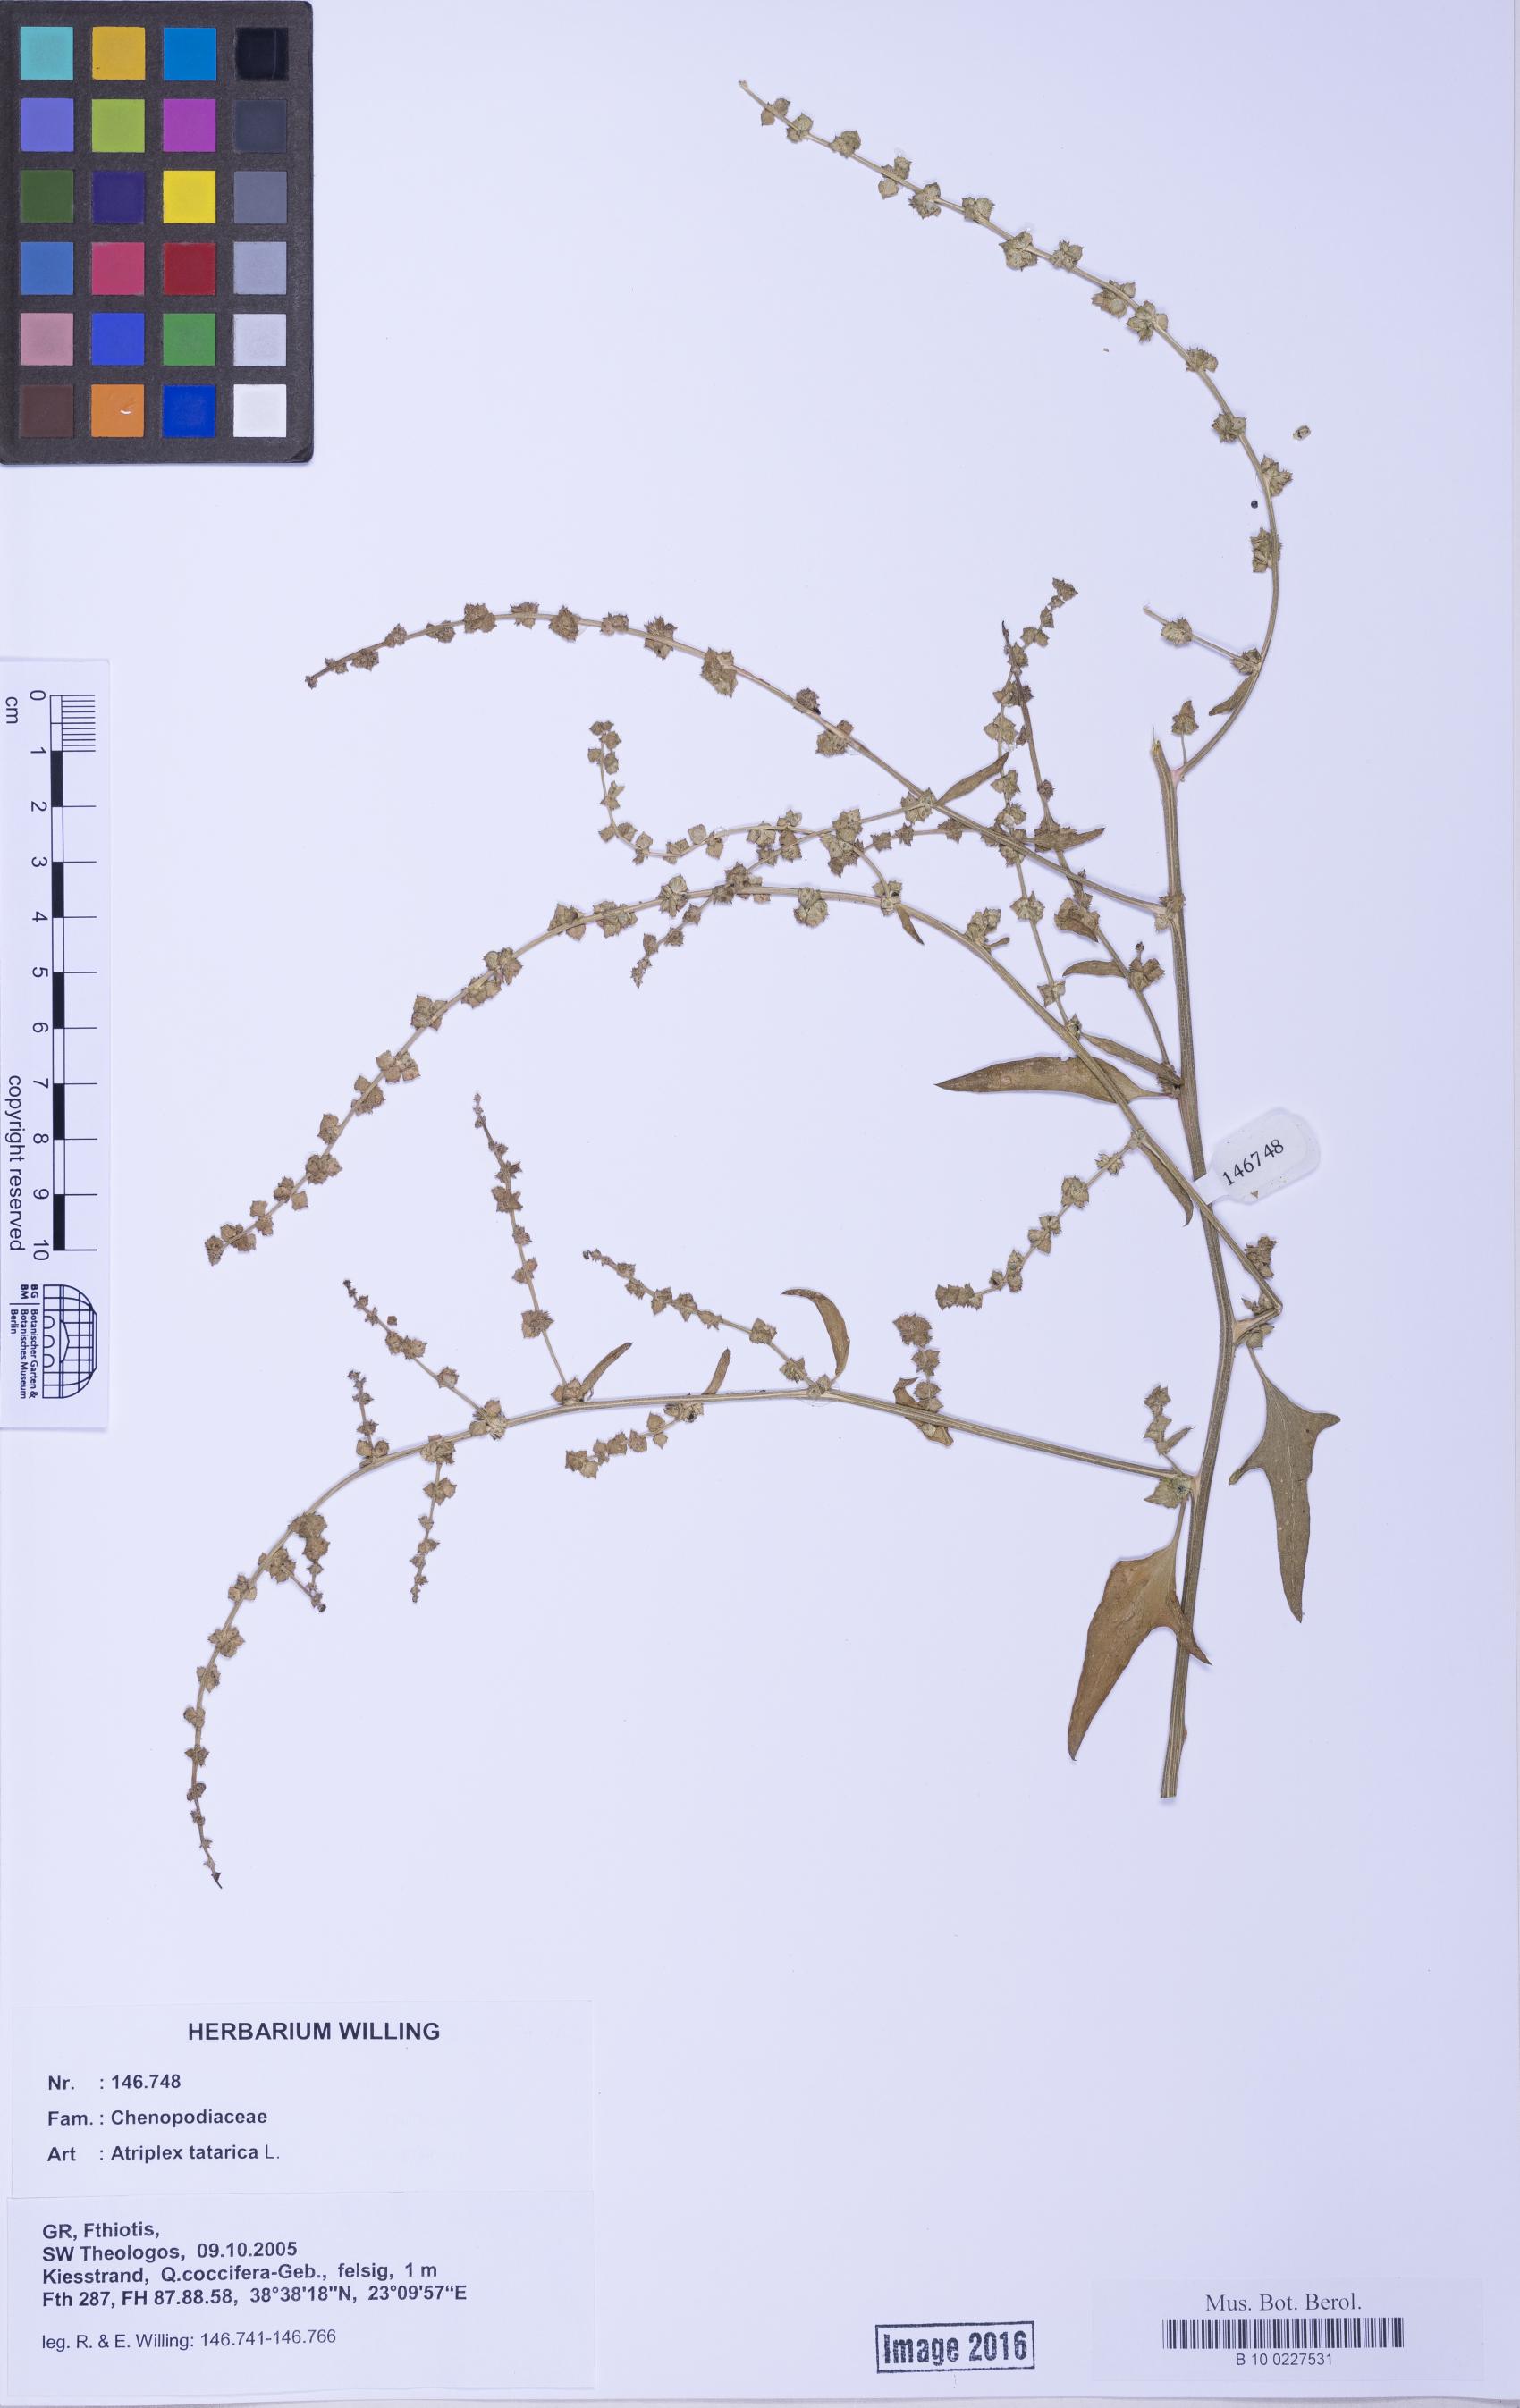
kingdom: Plantae
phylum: Tracheophyta
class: Magnoliopsida
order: Caryophyllales
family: Amaranthaceae
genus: Atriplex
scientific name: Atriplex prostrata
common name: Spear-leaved orache
